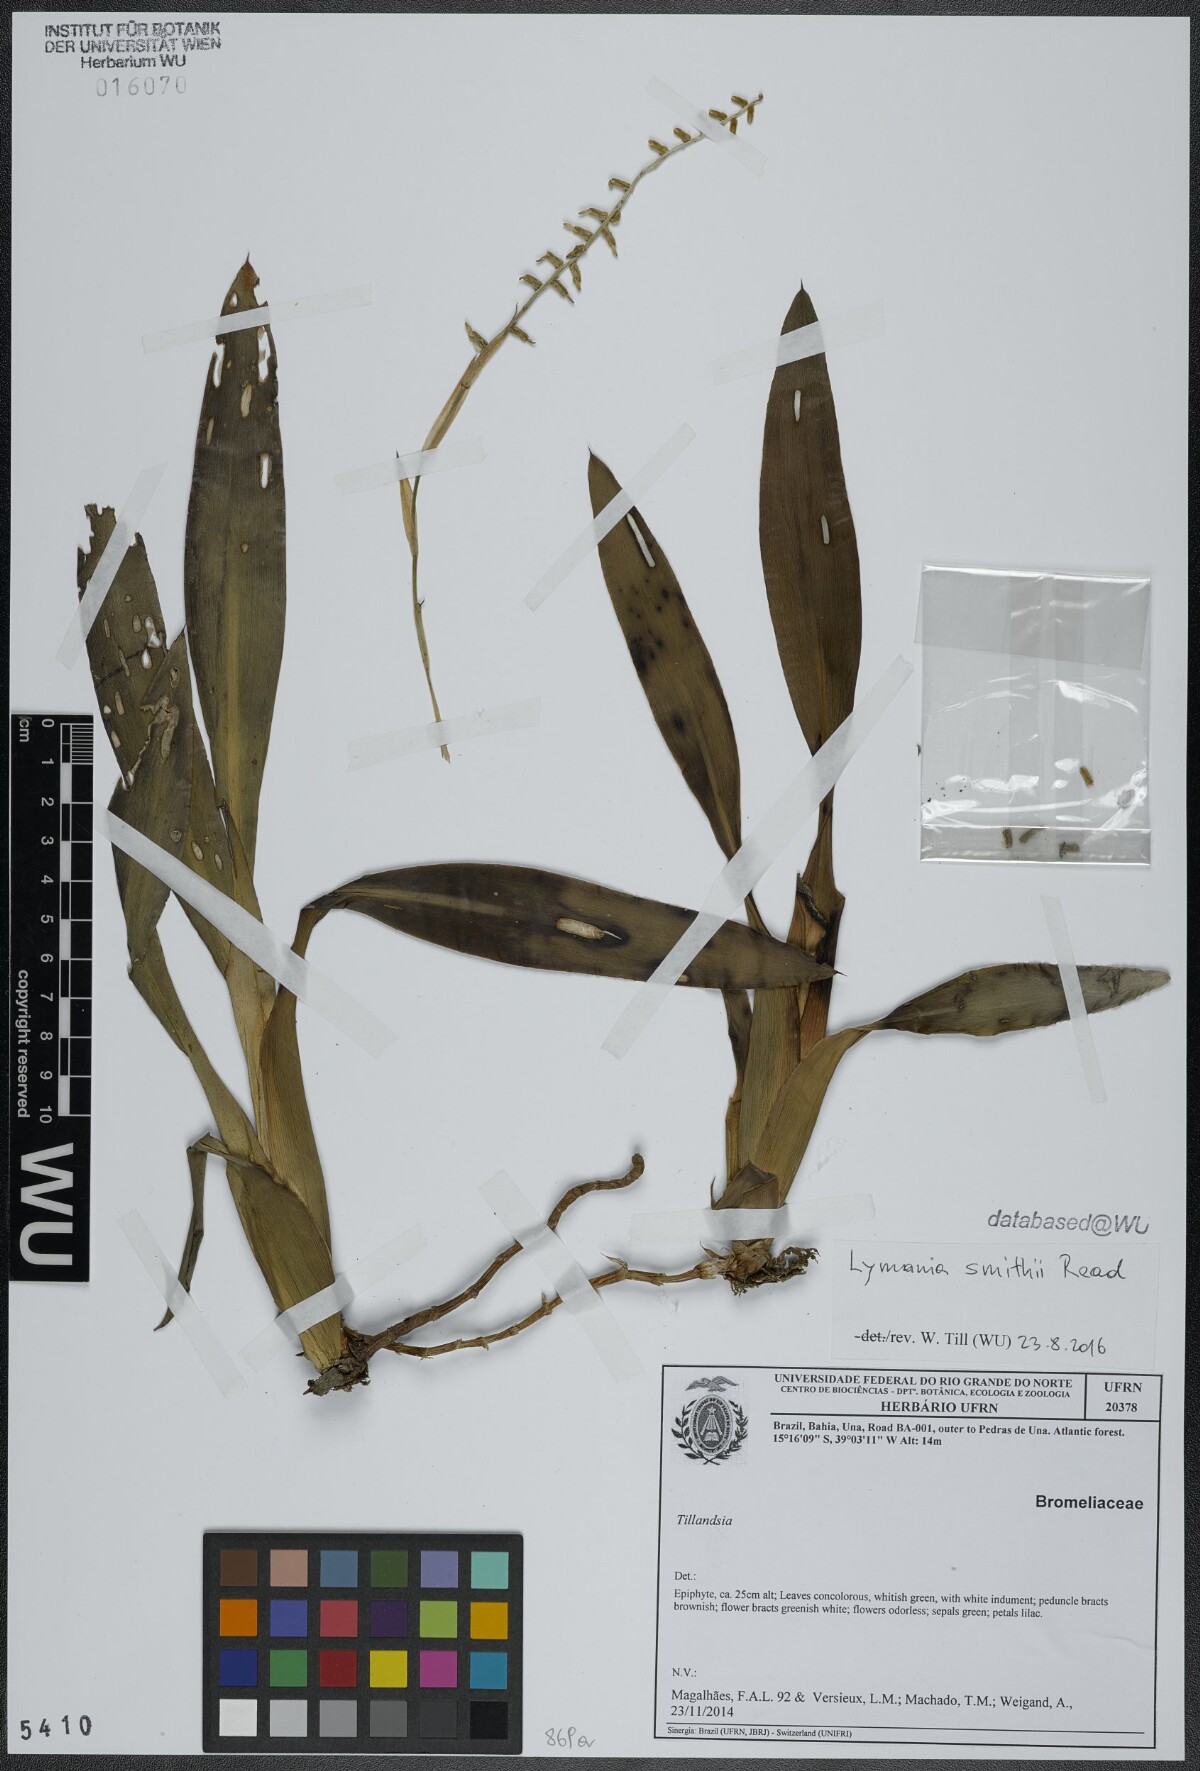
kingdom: Plantae
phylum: Tracheophyta
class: Liliopsida
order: Poales
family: Bromeliaceae
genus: Lymania
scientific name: Lymania smithii
